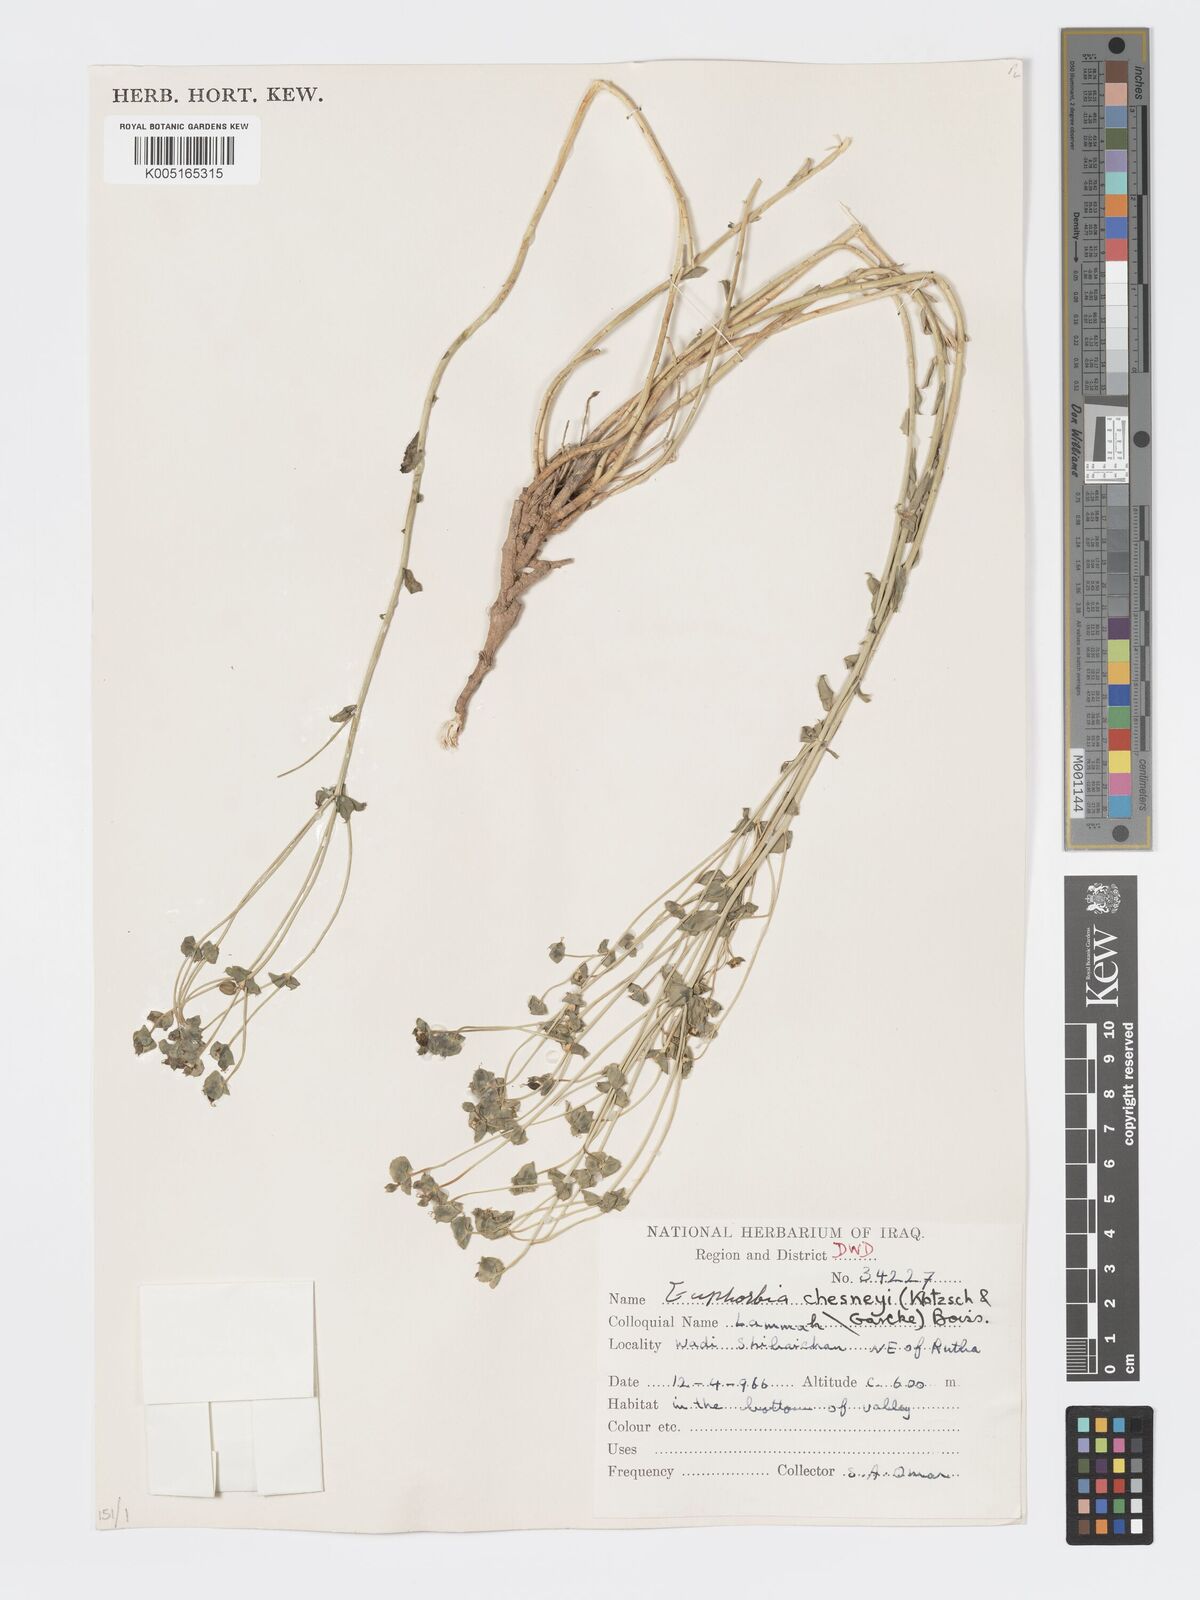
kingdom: Plantae
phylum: Tracheophyta
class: Magnoliopsida
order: Malpighiales
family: Euphorbiaceae
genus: Euphorbia
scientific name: Euphorbia cuspidata
